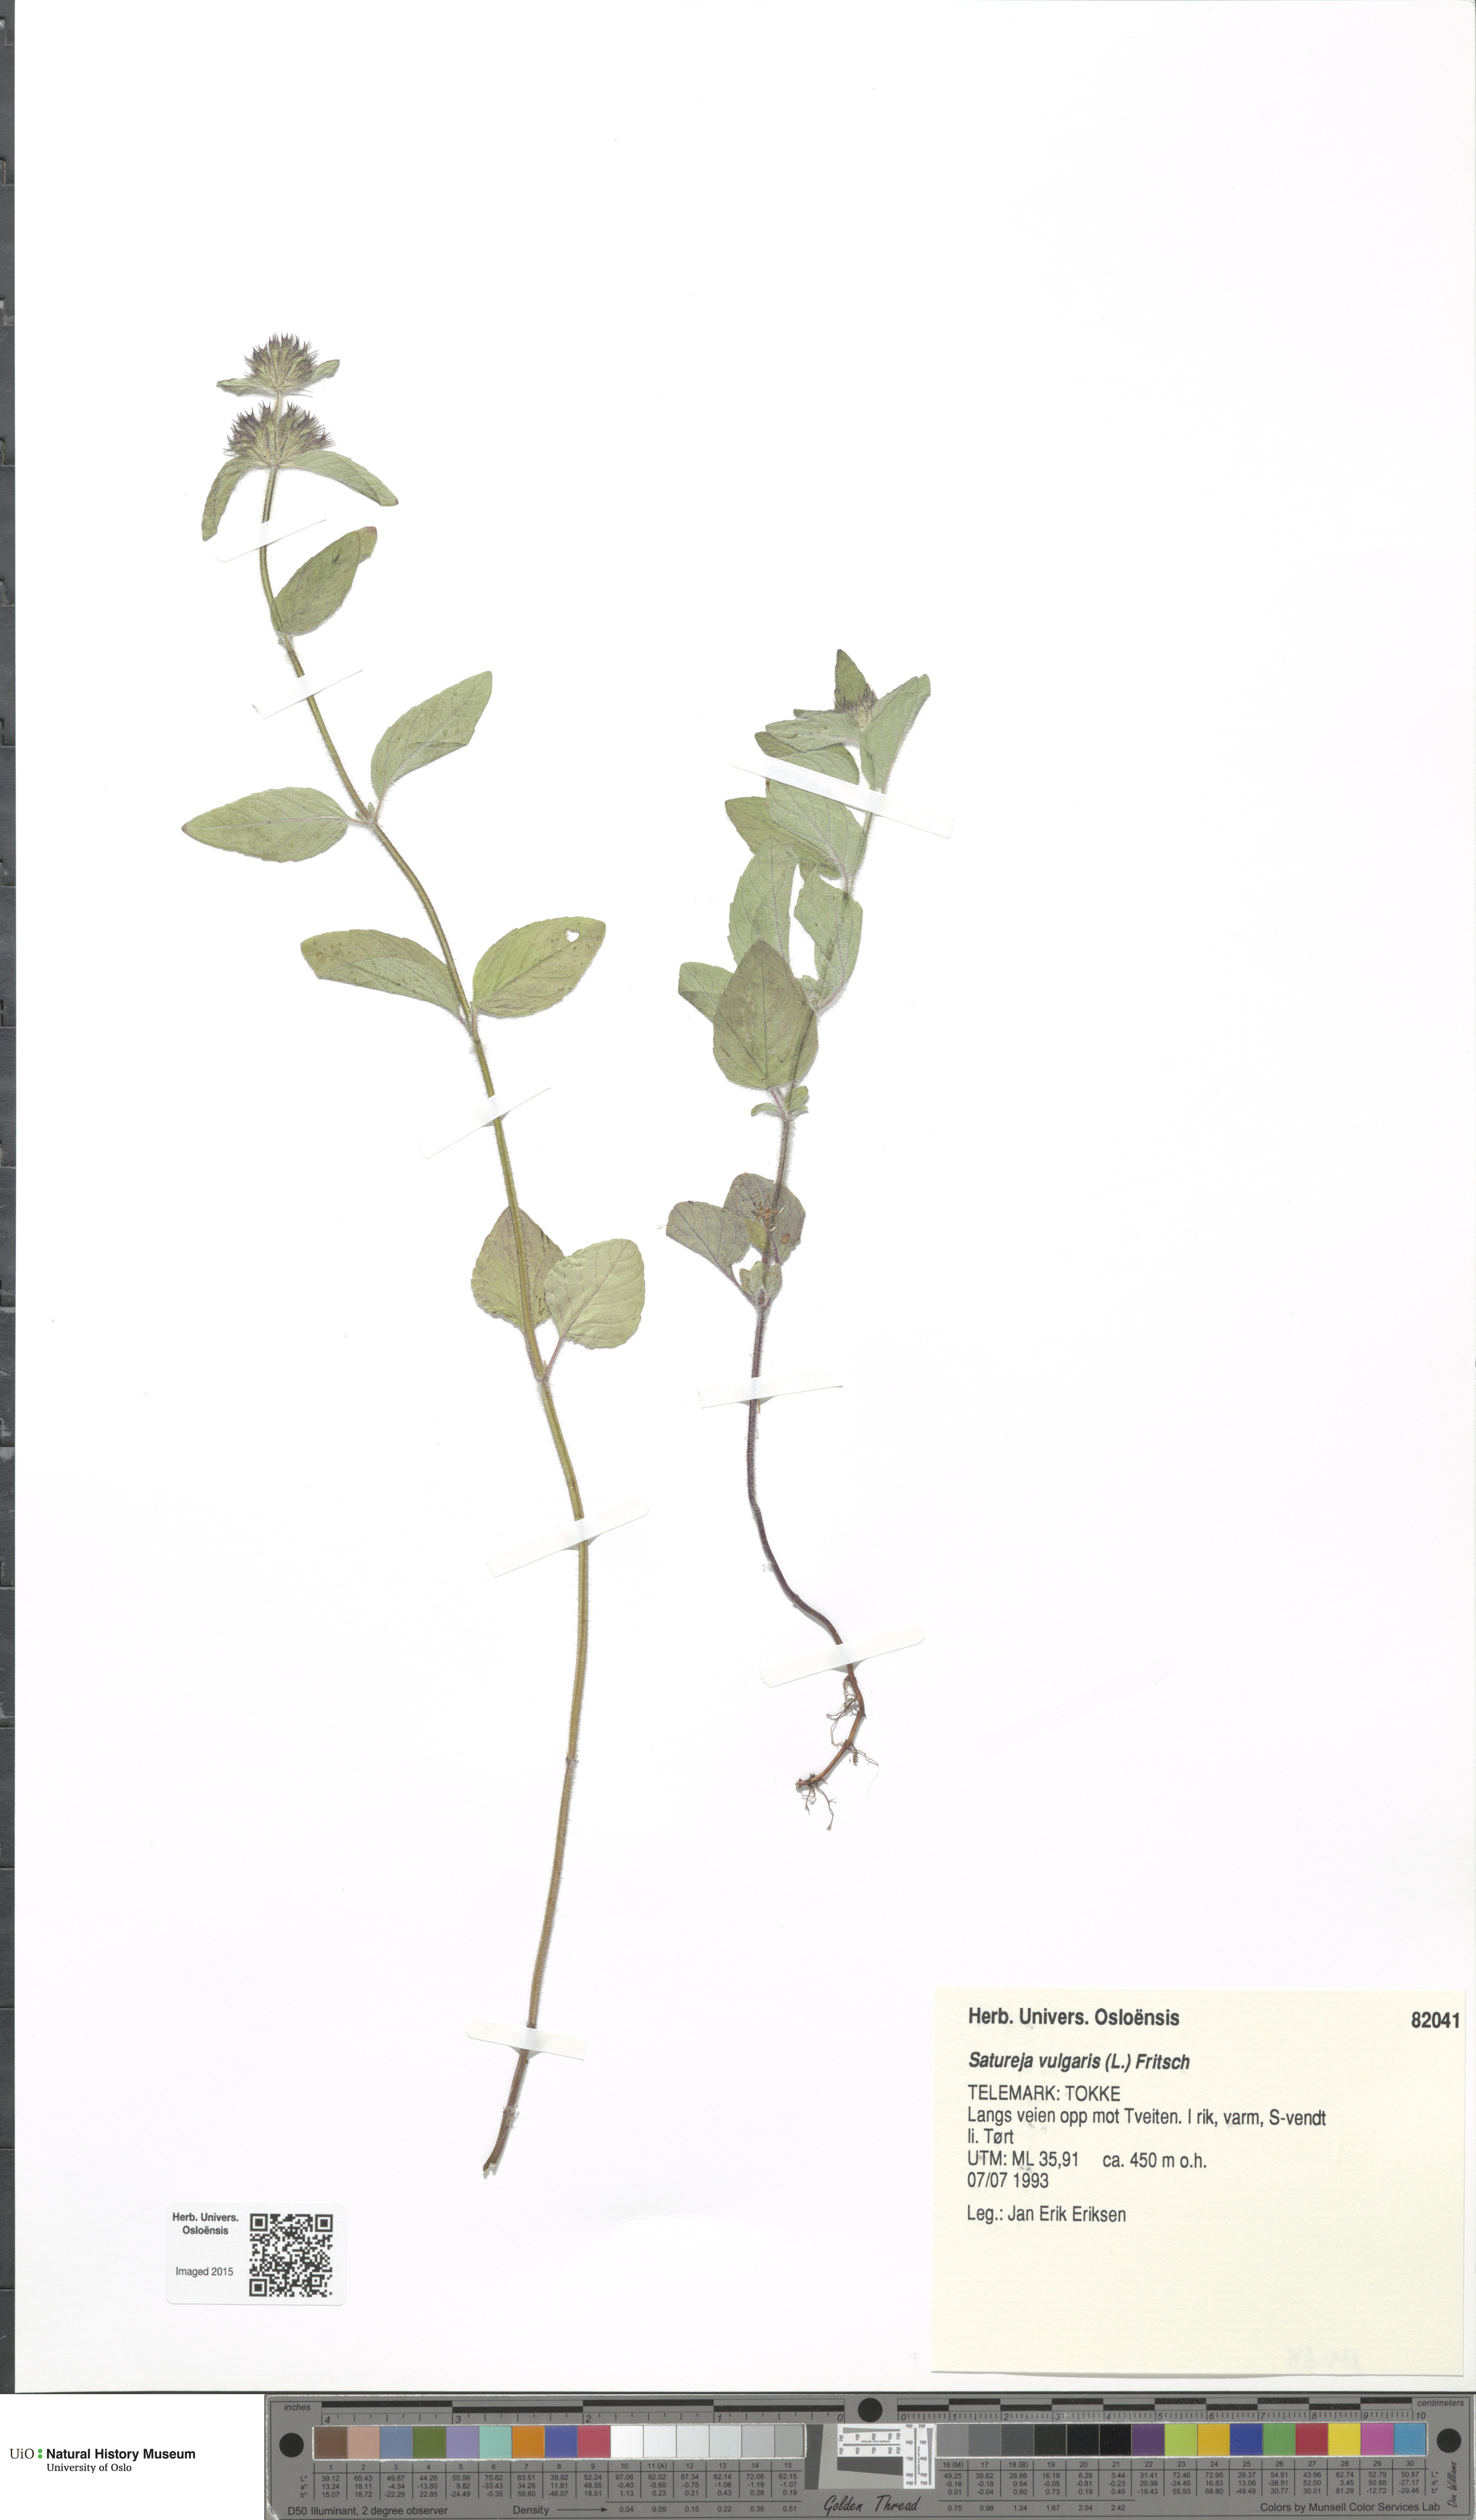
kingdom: Plantae
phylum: Tracheophyta
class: Magnoliopsida
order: Lamiales
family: Lamiaceae
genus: Clinopodium
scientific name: Clinopodium vulgare
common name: Wild basil
